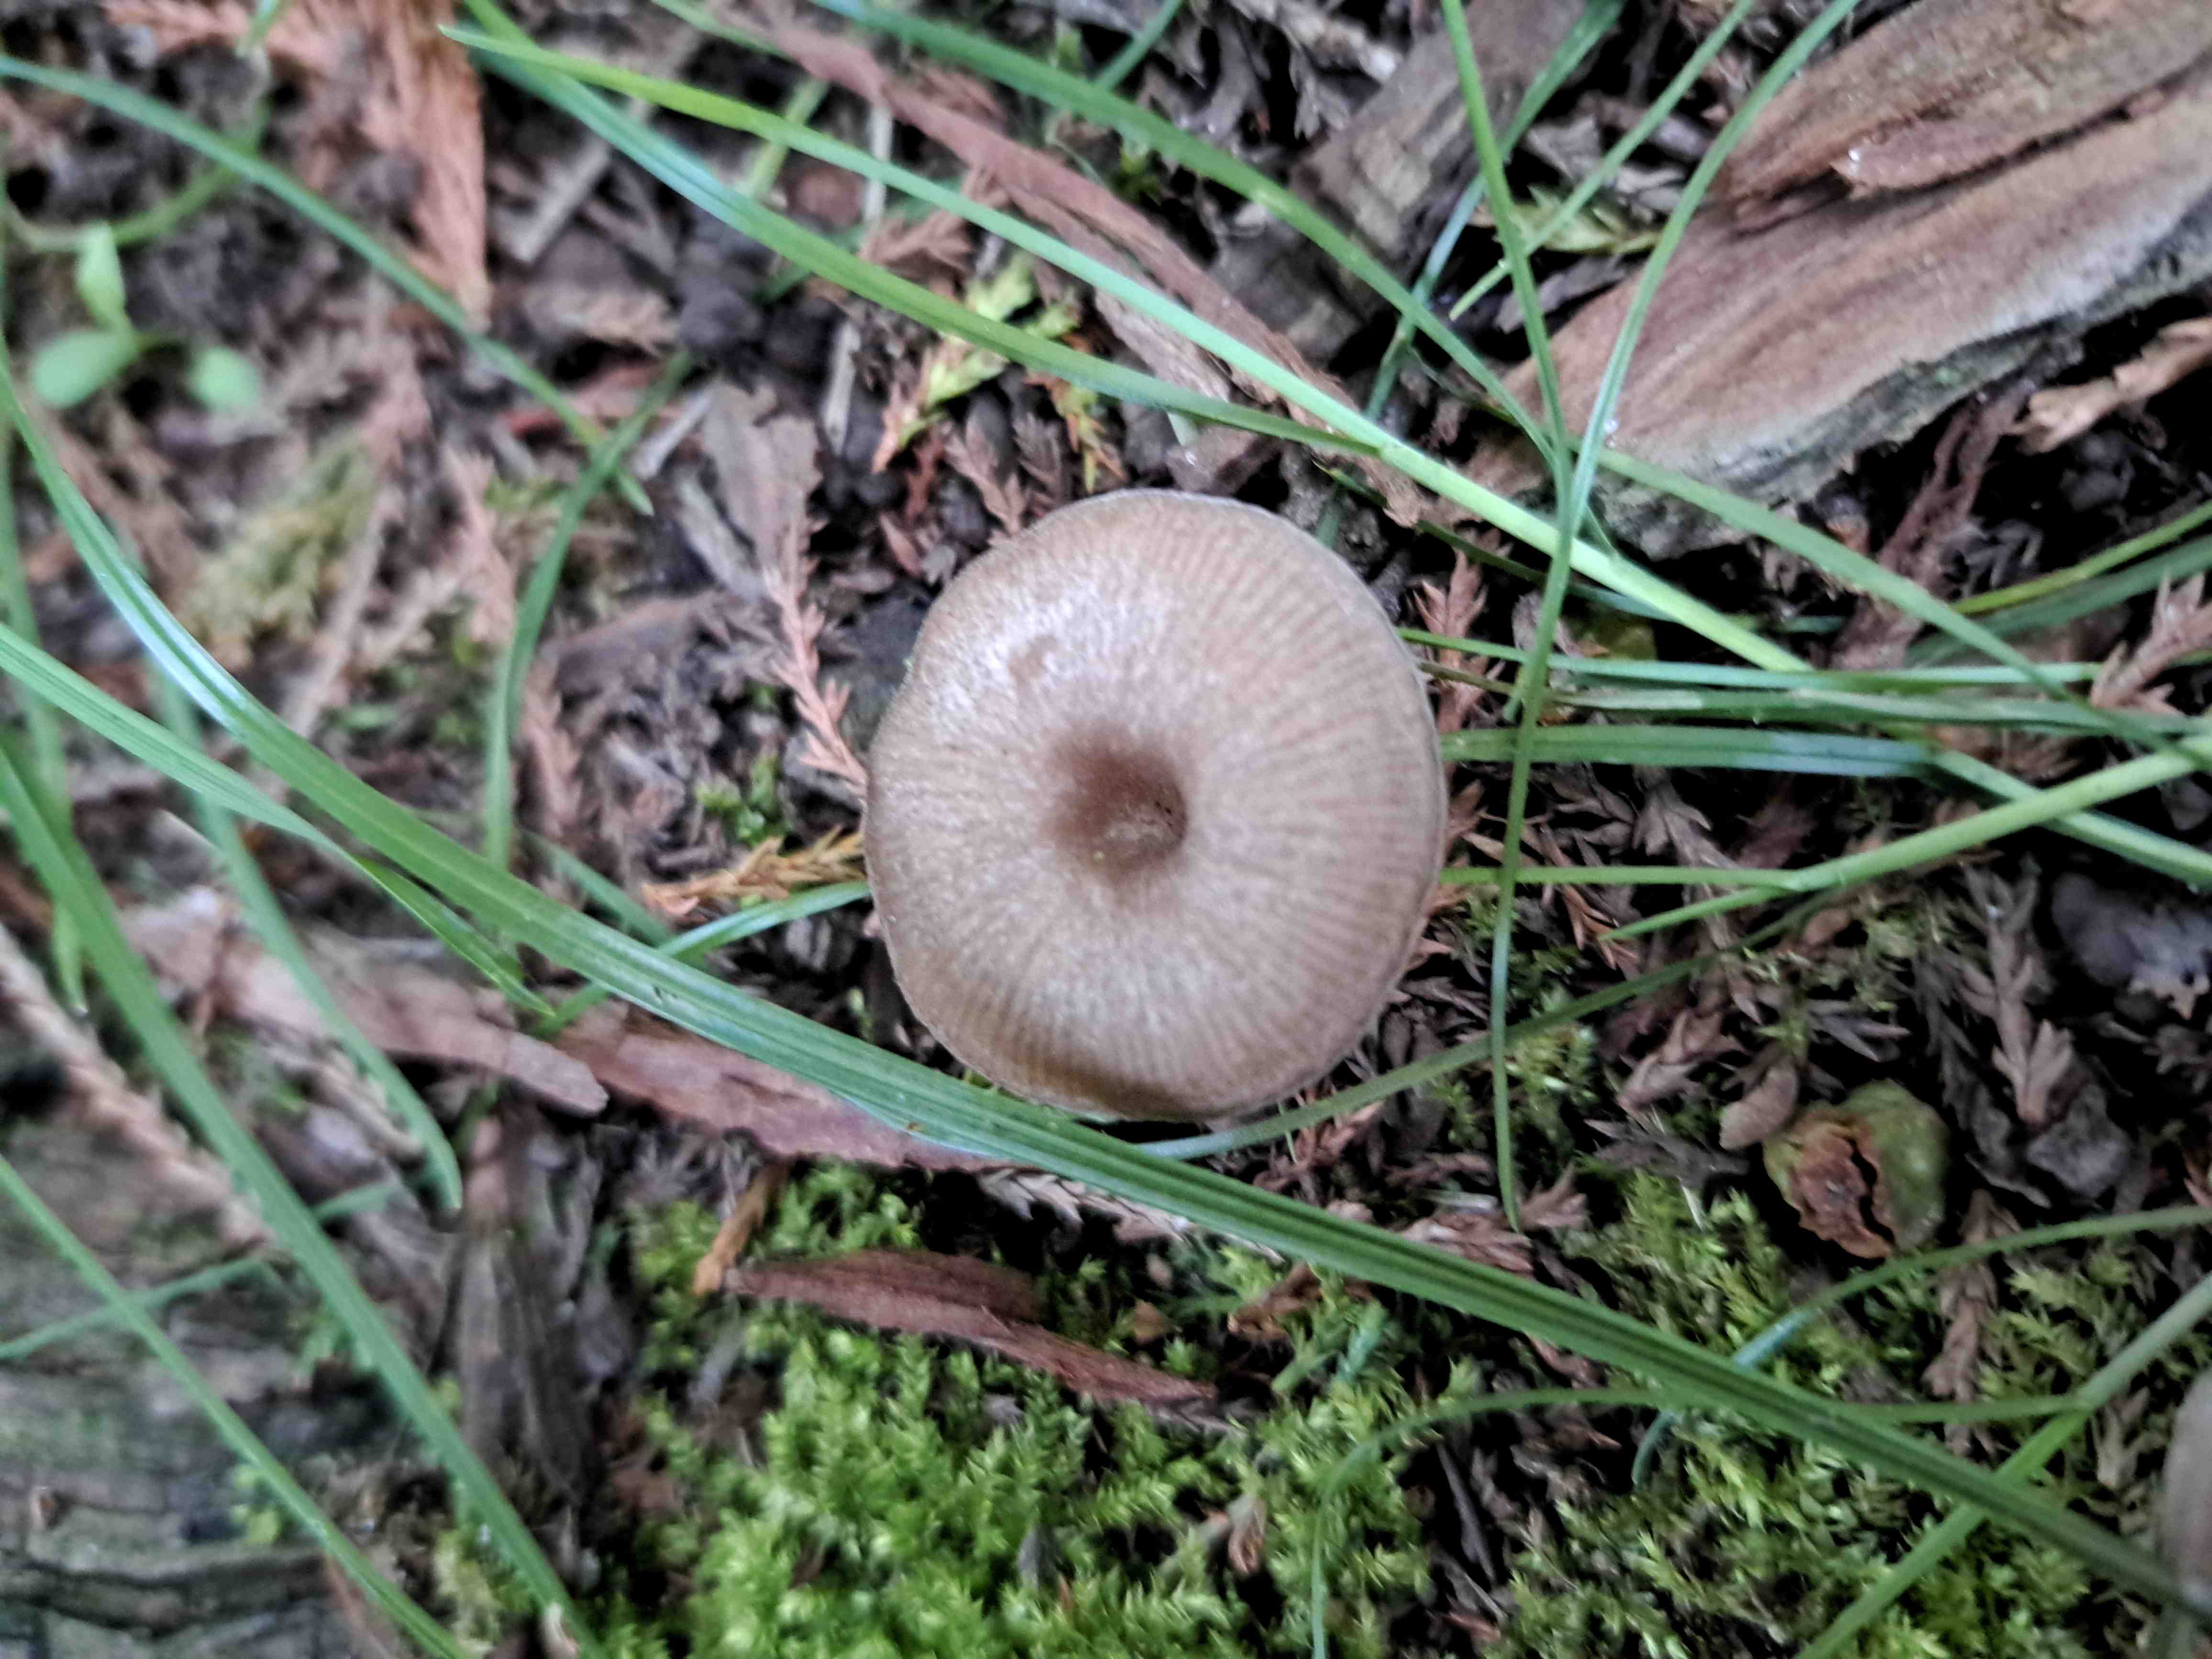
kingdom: Fungi
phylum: Basidiomycota
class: Agaricomycetes
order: Agaricales
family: Entolomataceae
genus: Entoloma
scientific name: Entoloma undatum
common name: bæltet rødblad
